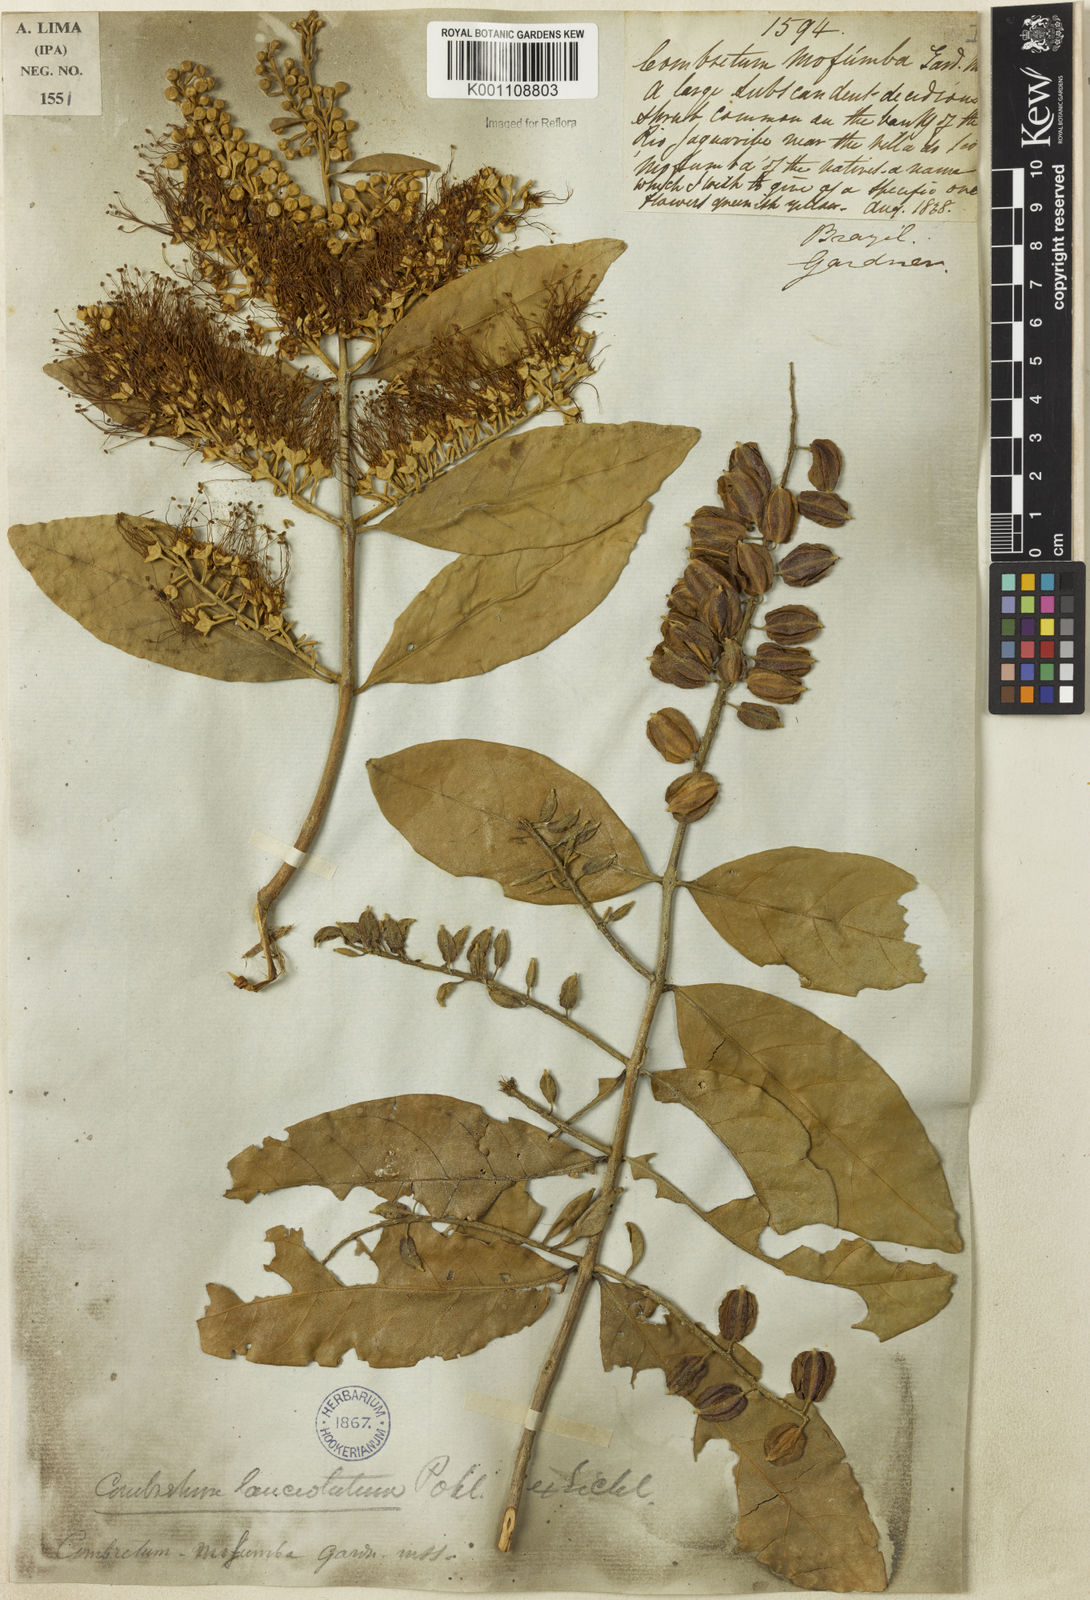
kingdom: Plantae
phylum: Tracheophyta
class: Magnoliopsida
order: Myrtales
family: Combretaceae
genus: Combretum
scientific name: Combretum lanceolatum
